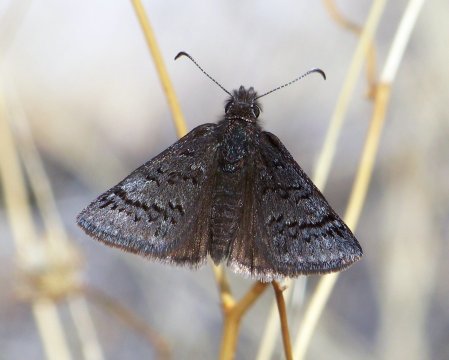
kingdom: Animalia
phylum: Arthropoda
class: Insecta
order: Lepidoptera
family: Hesperiidae
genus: Erynnis
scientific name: Erynnis brizo
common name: Sleepy Duskywing
